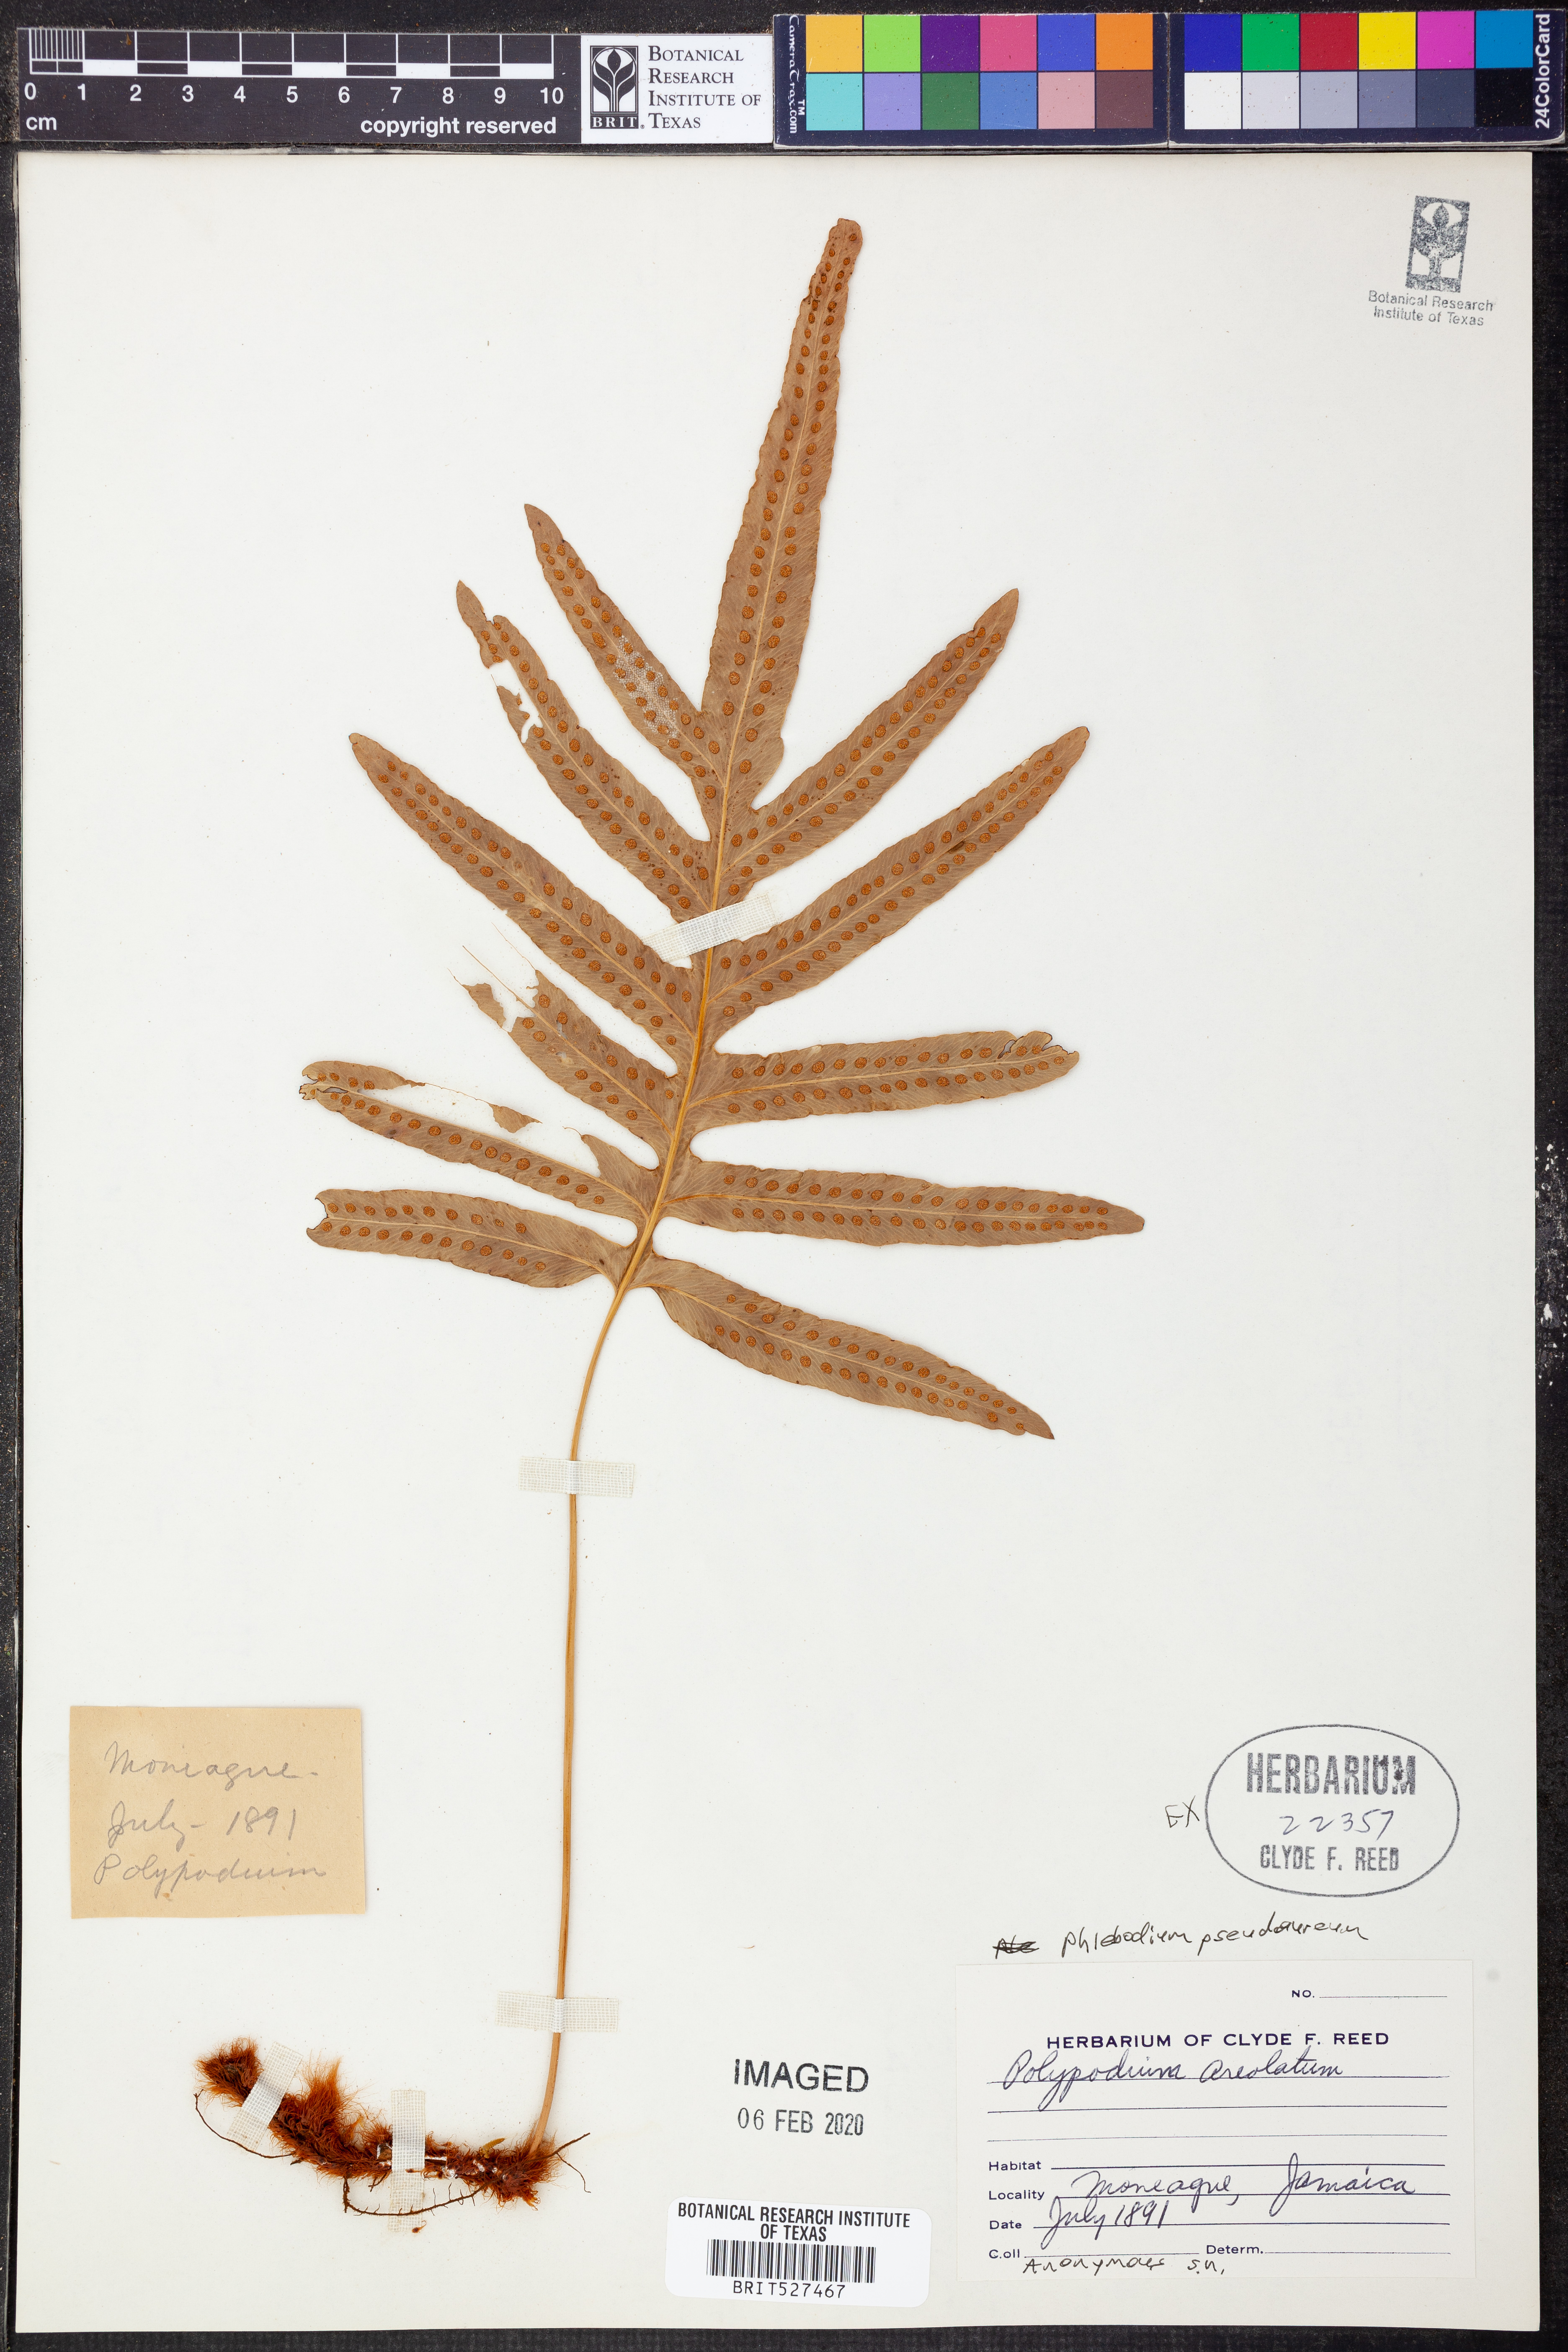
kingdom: Plantae
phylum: Tracheophyta
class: Polypodiopsida
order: Polypodiales
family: Polypodiaceae
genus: Phlebodium
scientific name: Phlebodium pseudoaureum
